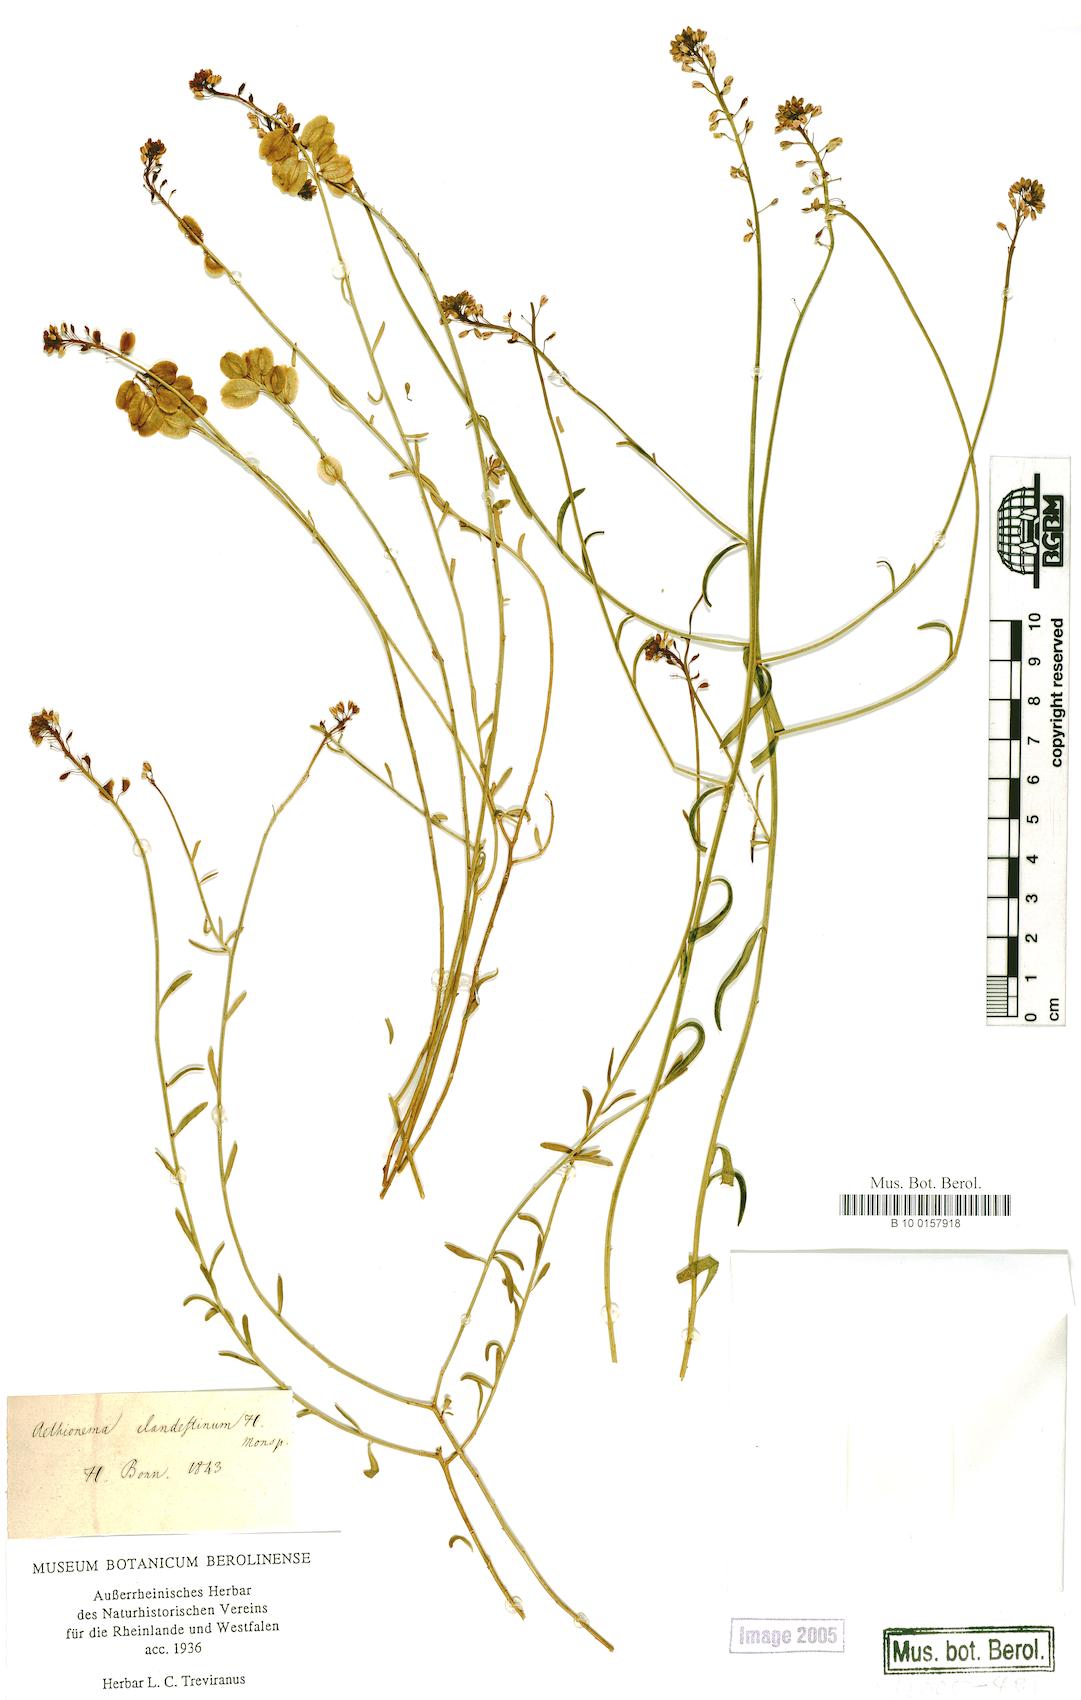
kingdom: Plantae
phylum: Tracheophyta
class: Magnoliopsida
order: Brassicales
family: Brassicaceae
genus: Aethionema
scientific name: Aethionema clandestinum
